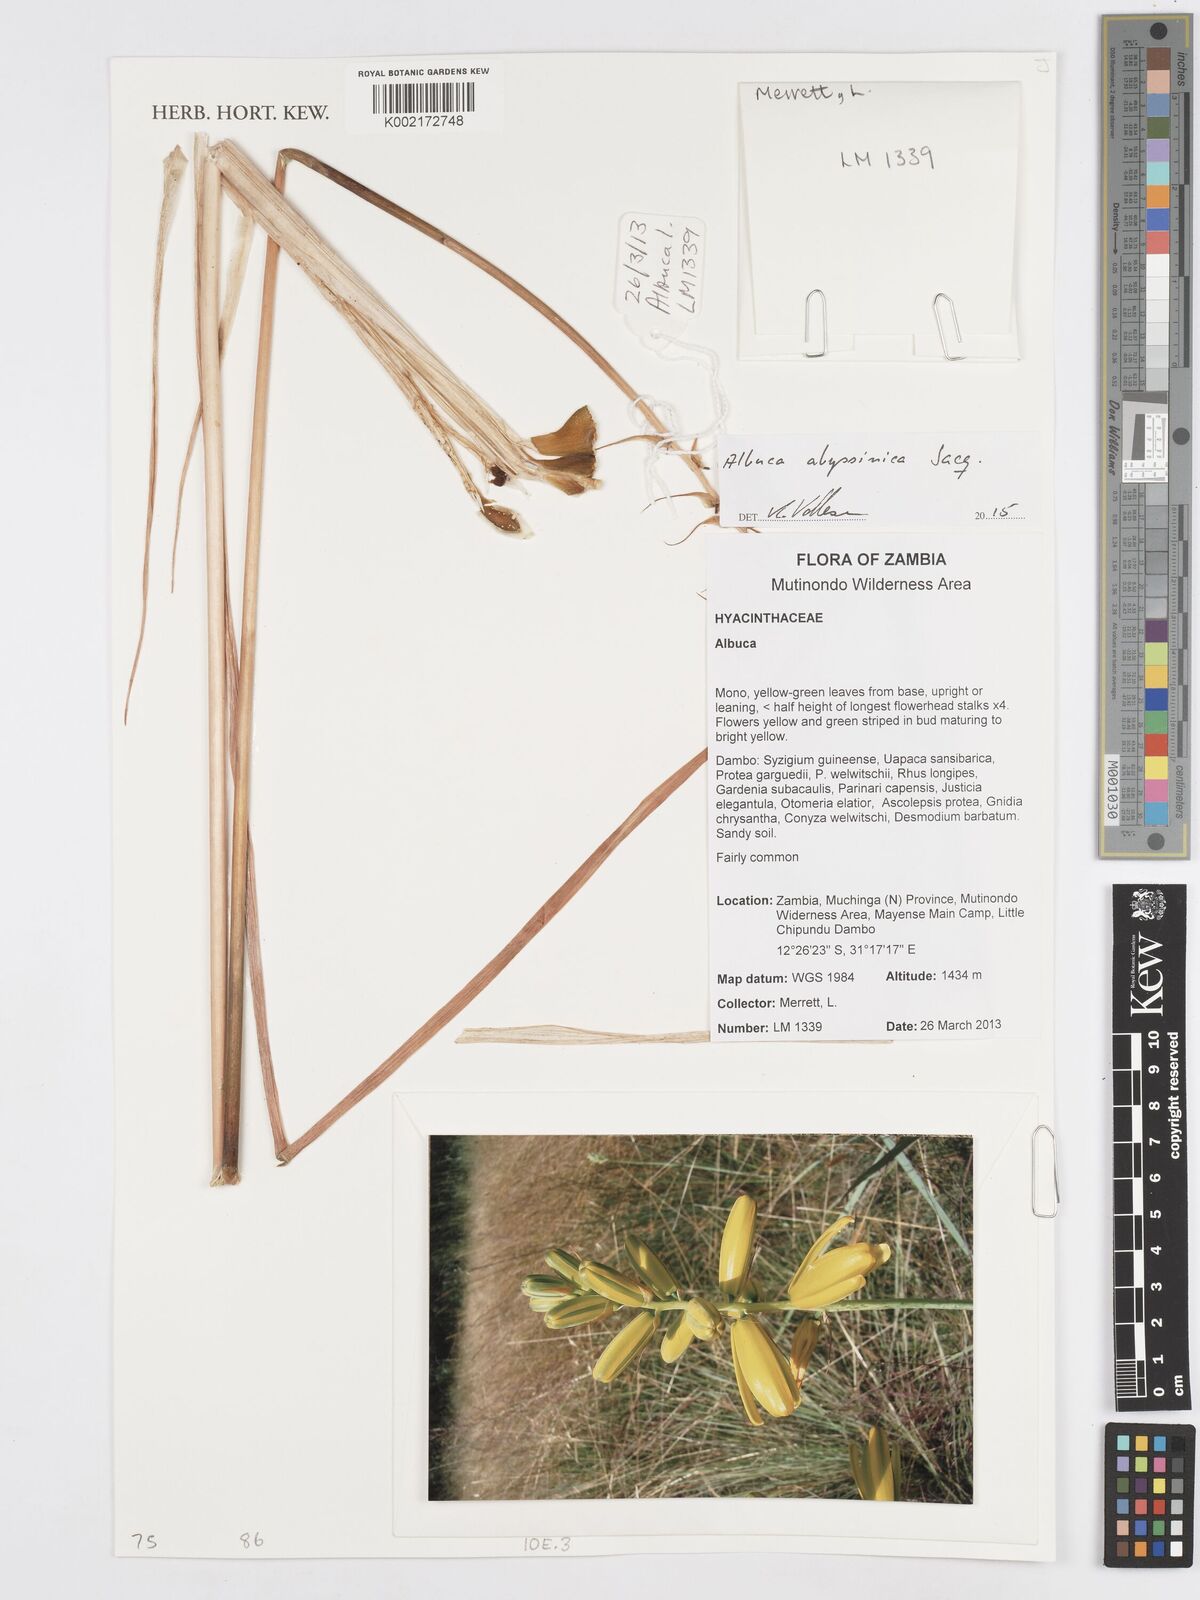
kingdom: Plantae
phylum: Tracheophyta
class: Liliopsida
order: Asparagales
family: Asparagaceae
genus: Albuca
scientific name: Albuca abyssinica
